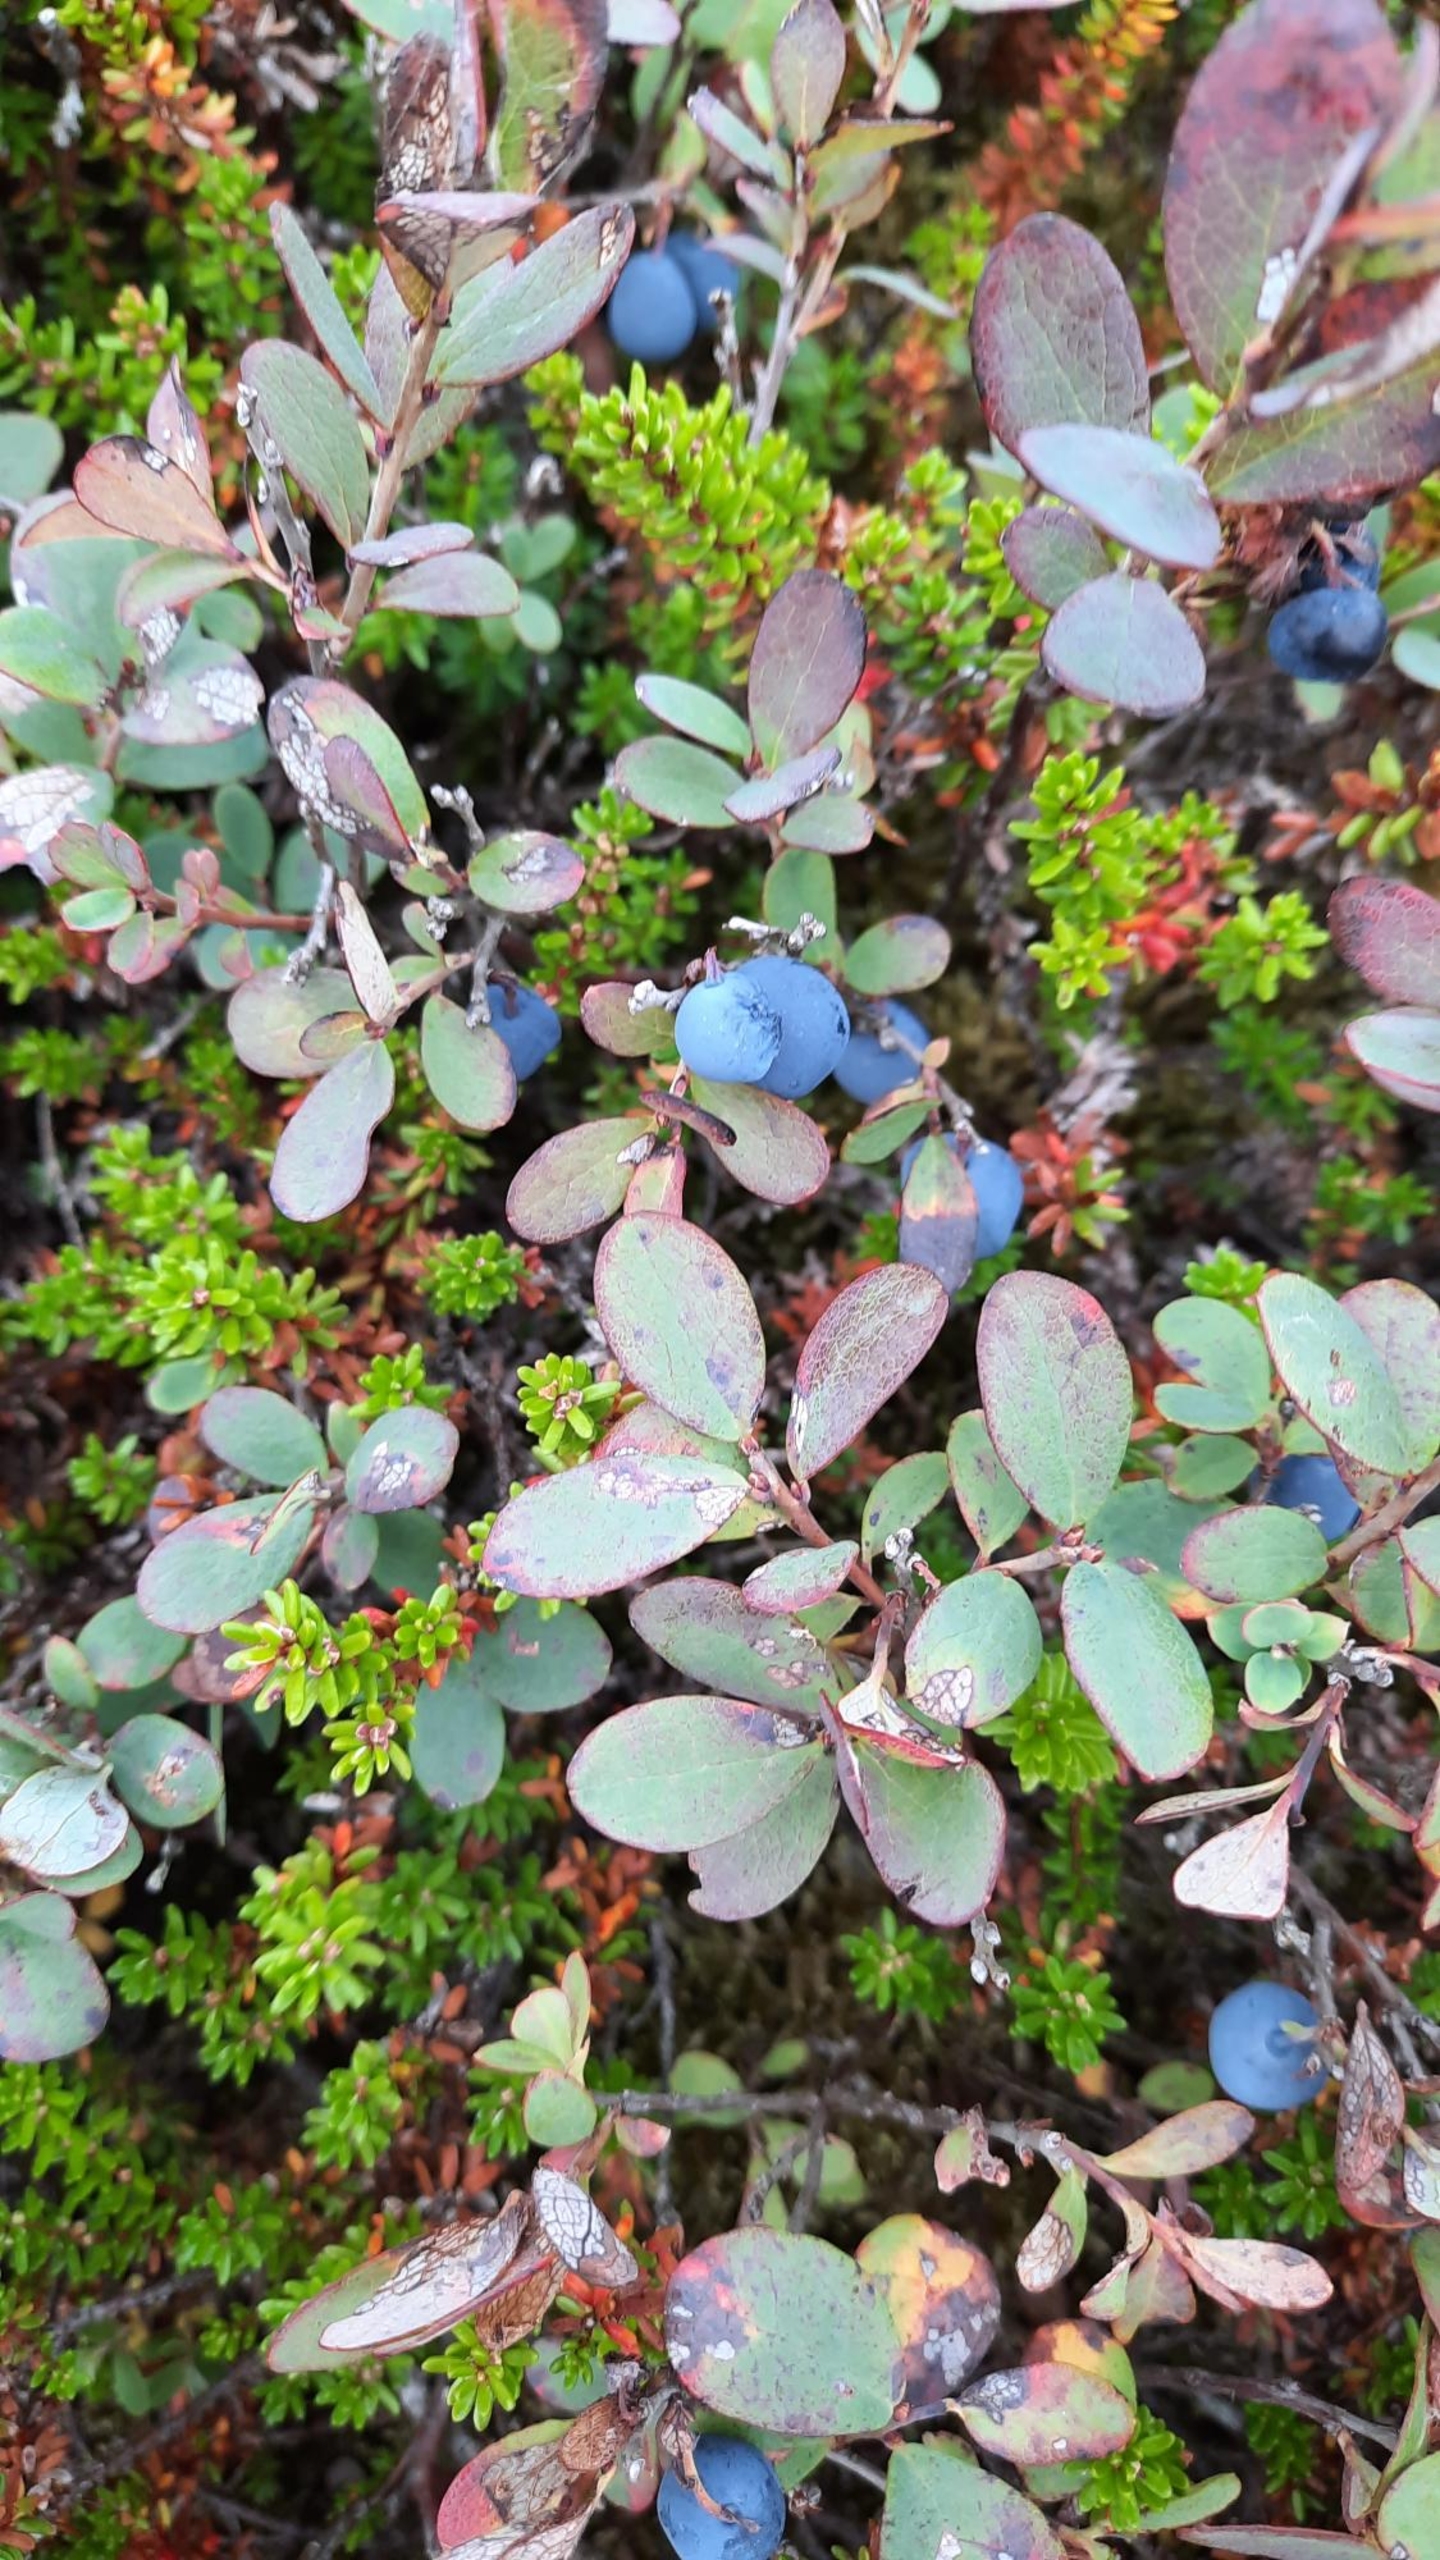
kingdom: Plantae
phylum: Tracheophyta
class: Magnoliopsida
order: Ericales
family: Ericaceae
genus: Vaccinium
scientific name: Vaccinium uliginosum
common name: Mose-bølle
